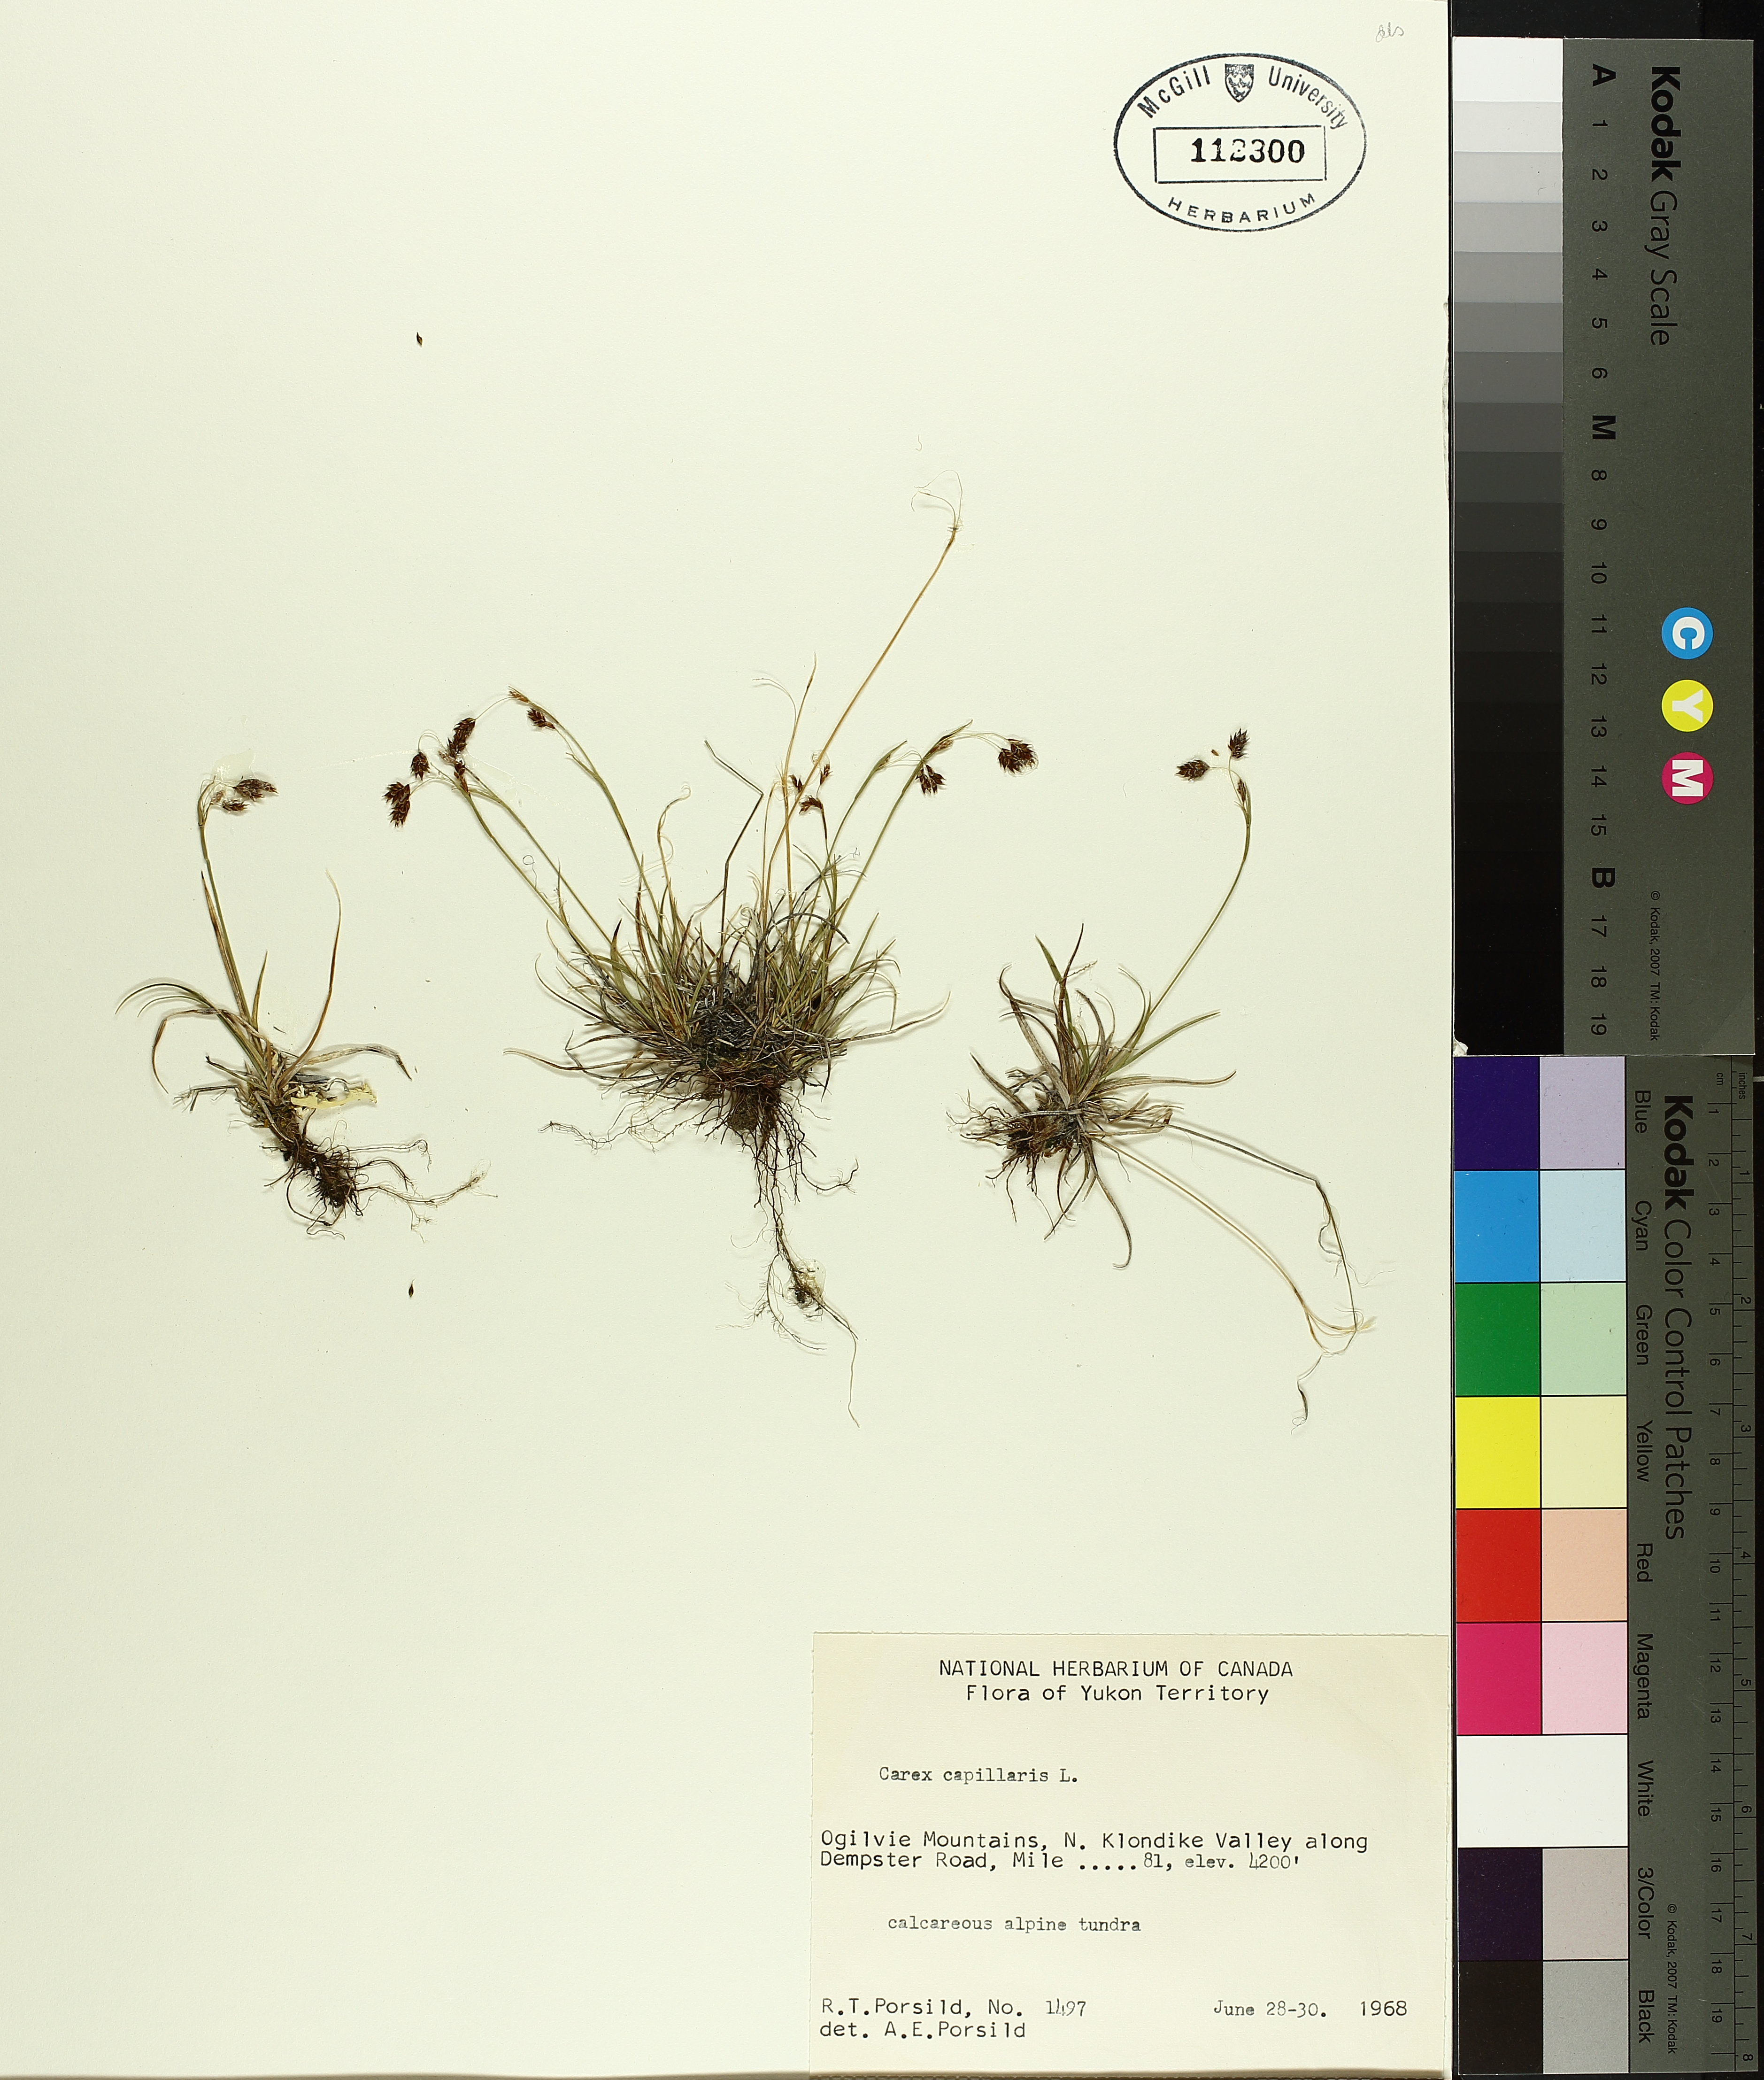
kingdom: Plantae
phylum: Tracheophyta
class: Liliopsida
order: Poales
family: Cyperaceae
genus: Carex
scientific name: Carex capillaris
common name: Hair sedge
